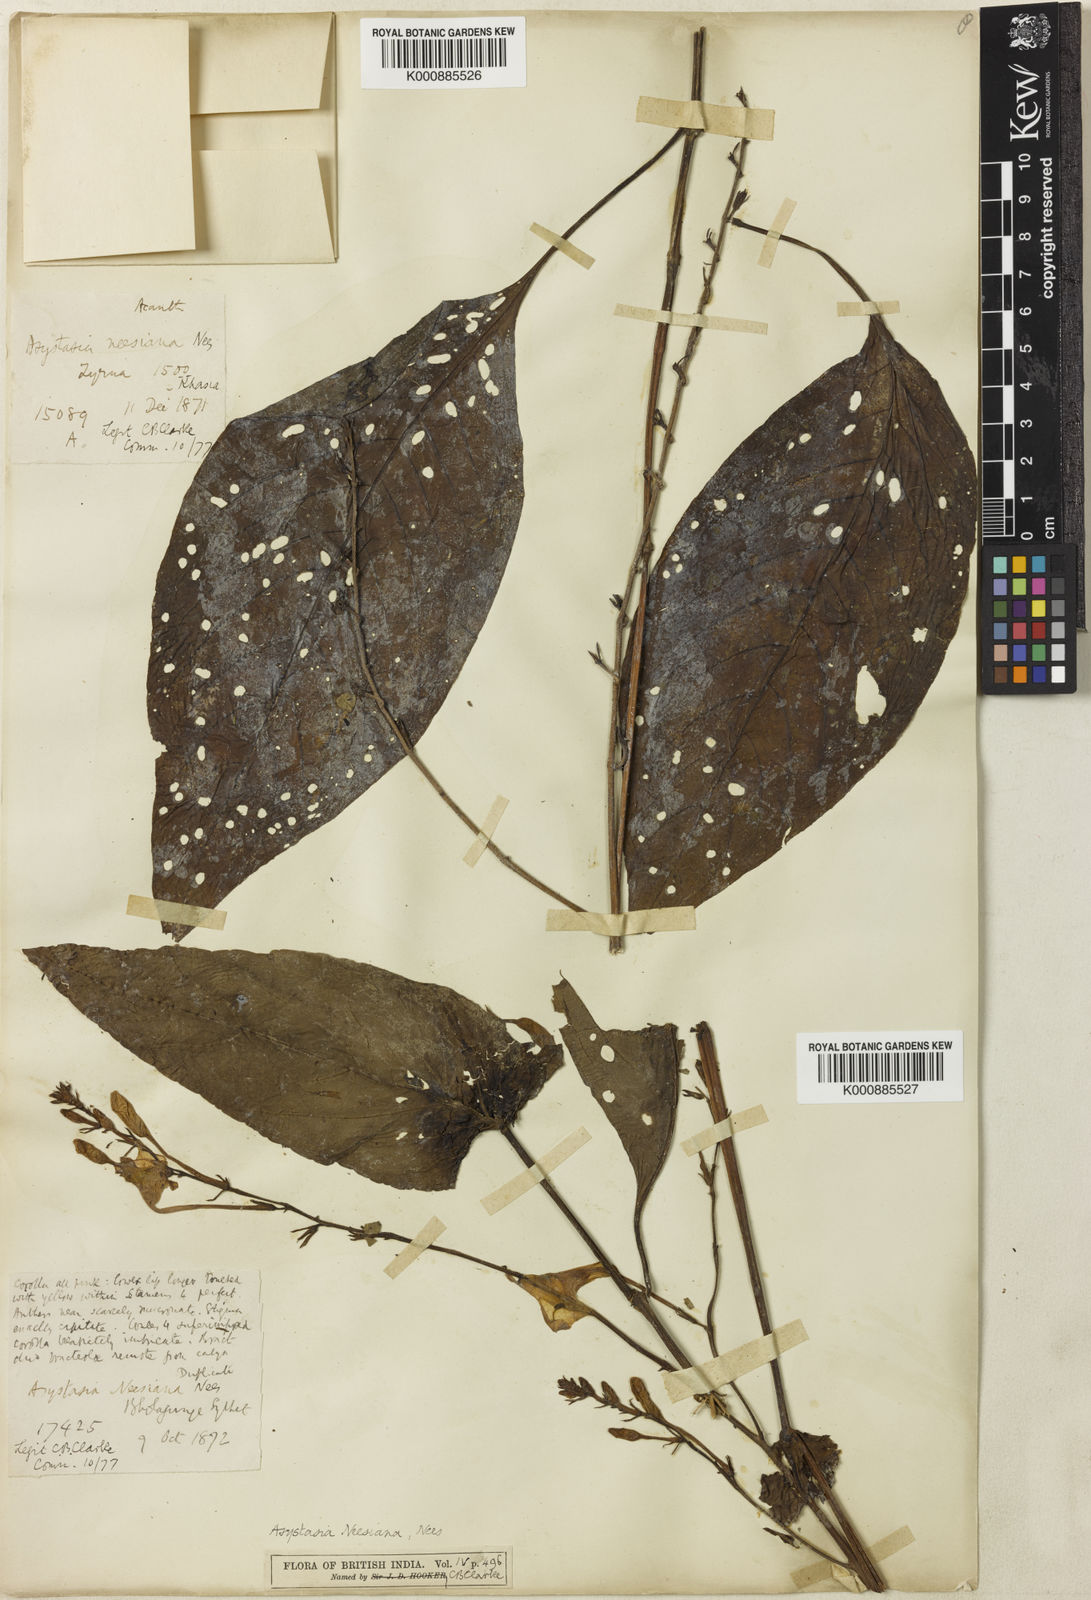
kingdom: Plantae
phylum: Tracheophyta
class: Magnoliopsida
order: Lamiales
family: Acanthaceae
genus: Mackaya
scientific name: Mackaya neesiana
